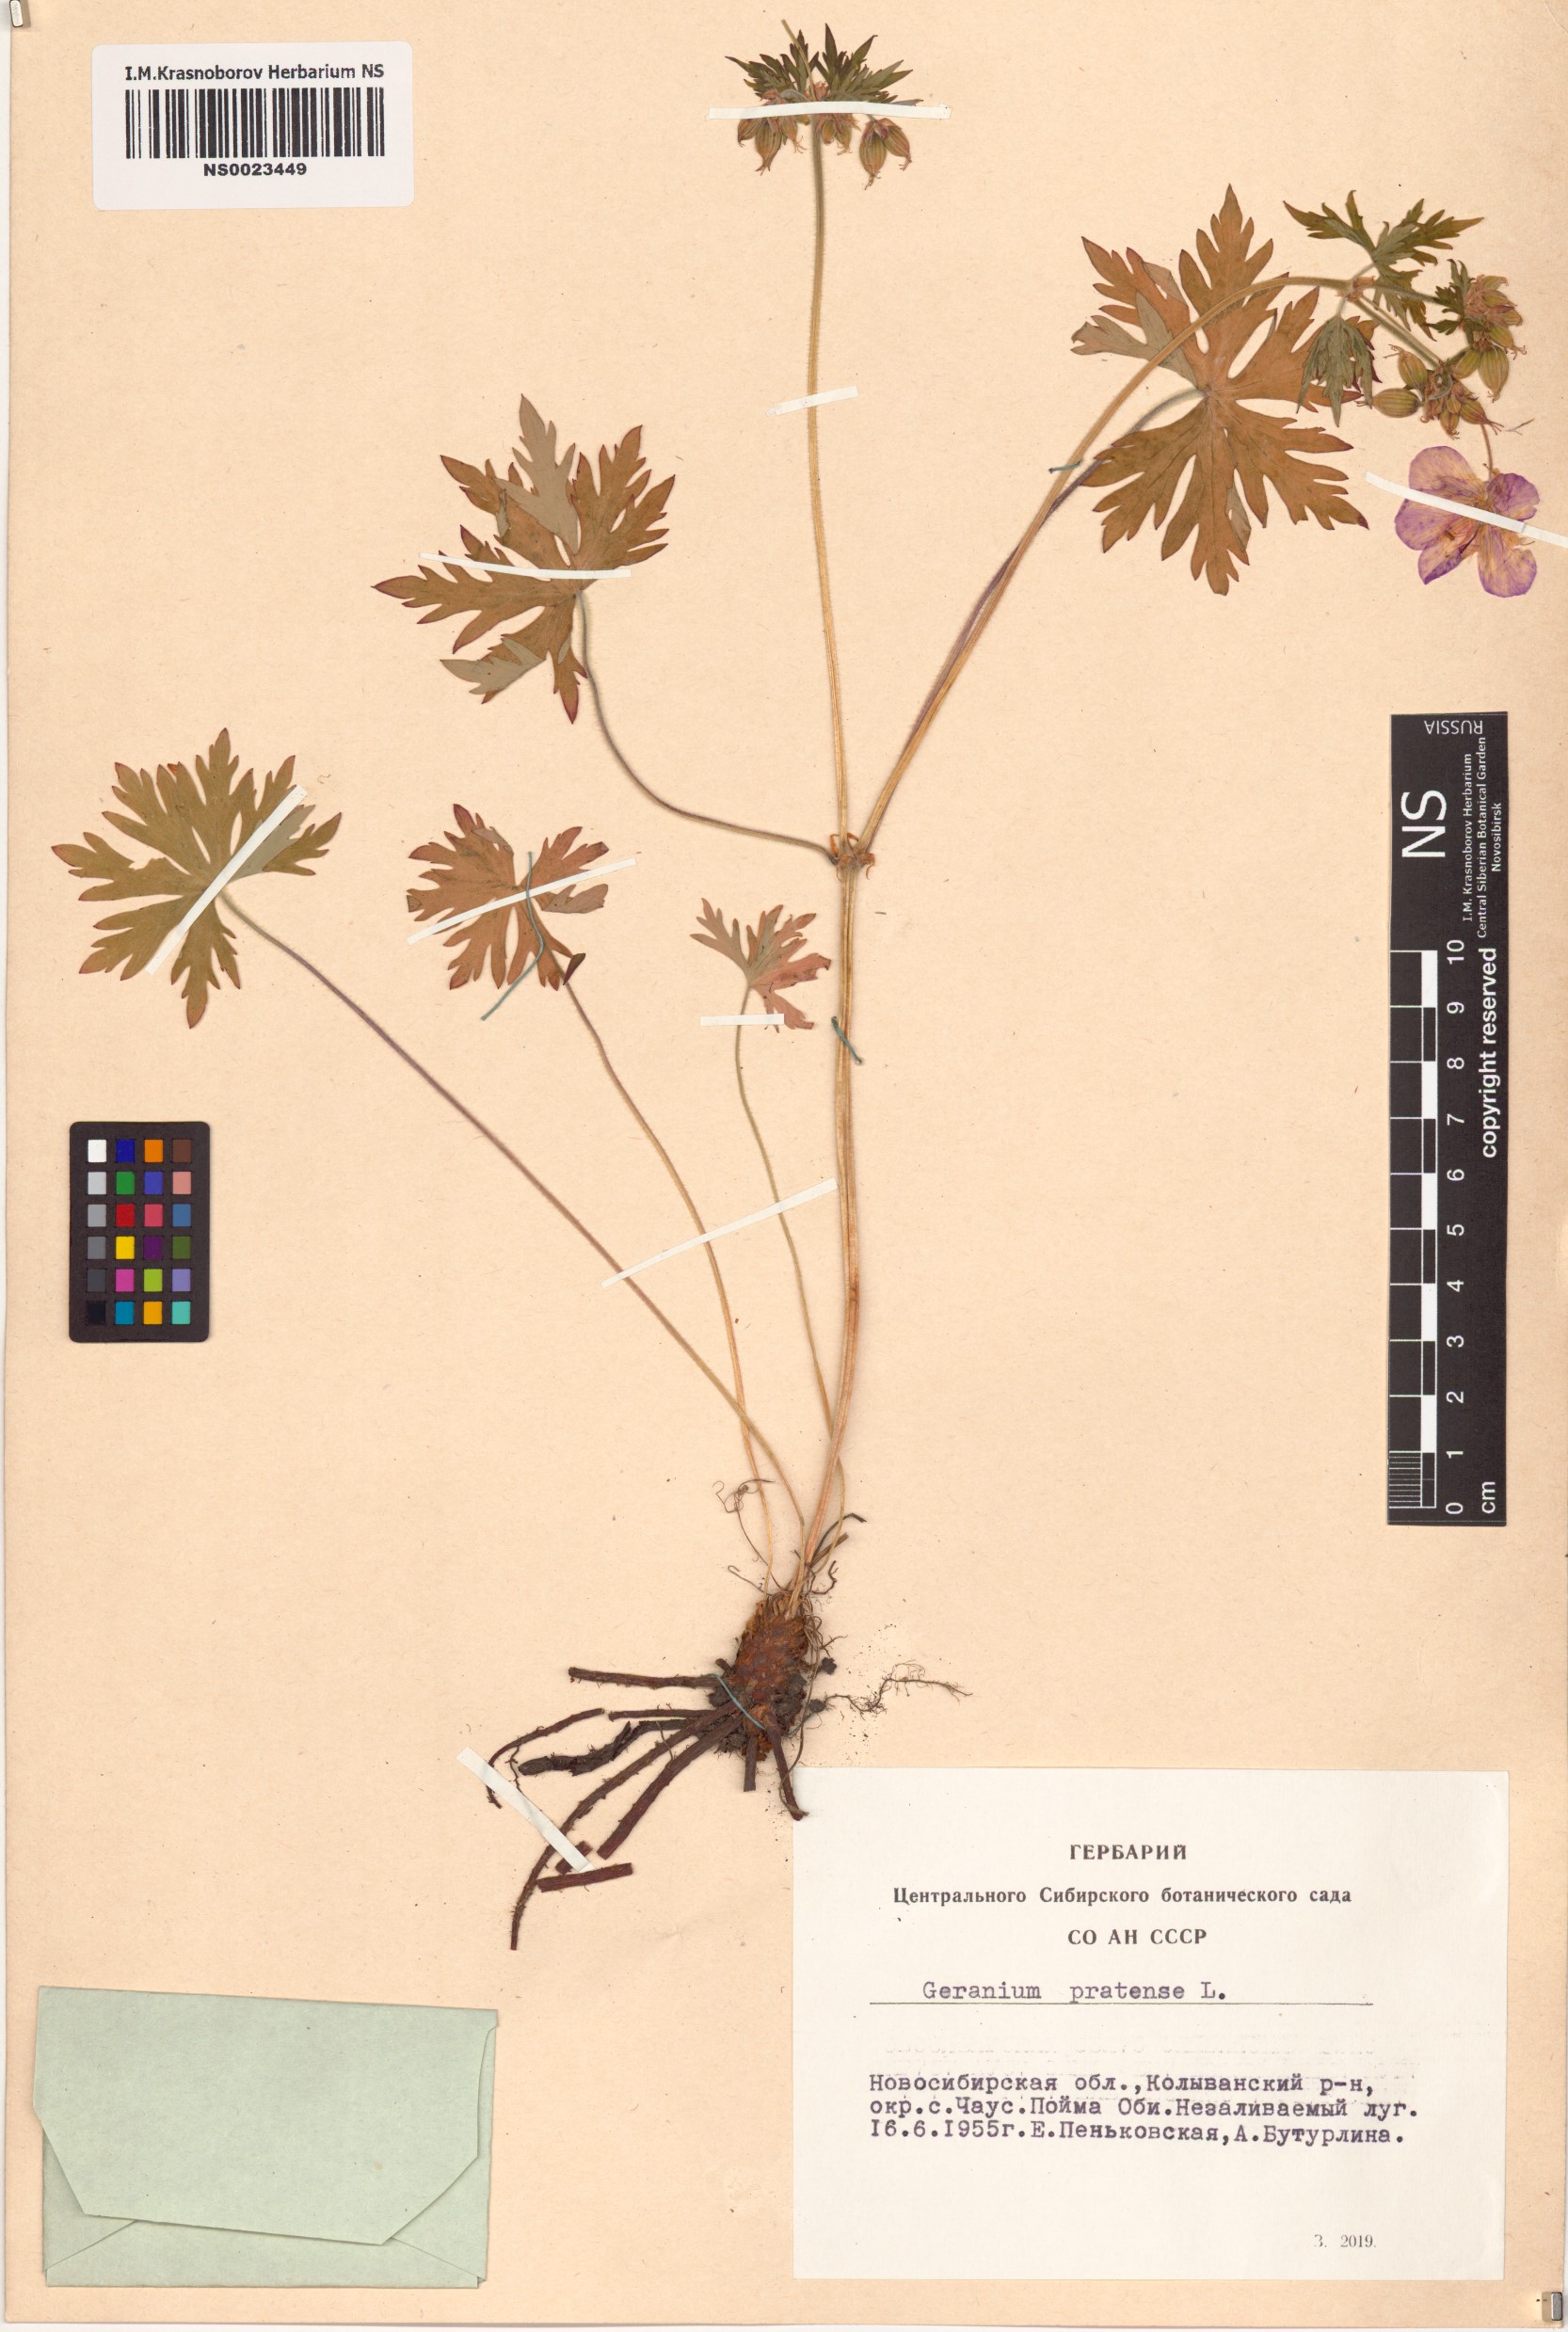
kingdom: Plantae
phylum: Tracheophyta
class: Magnoliopsida
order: Geraniales
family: Geraniaceae
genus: Geranium
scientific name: Geranium pratense
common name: Meadow crane's-bill
